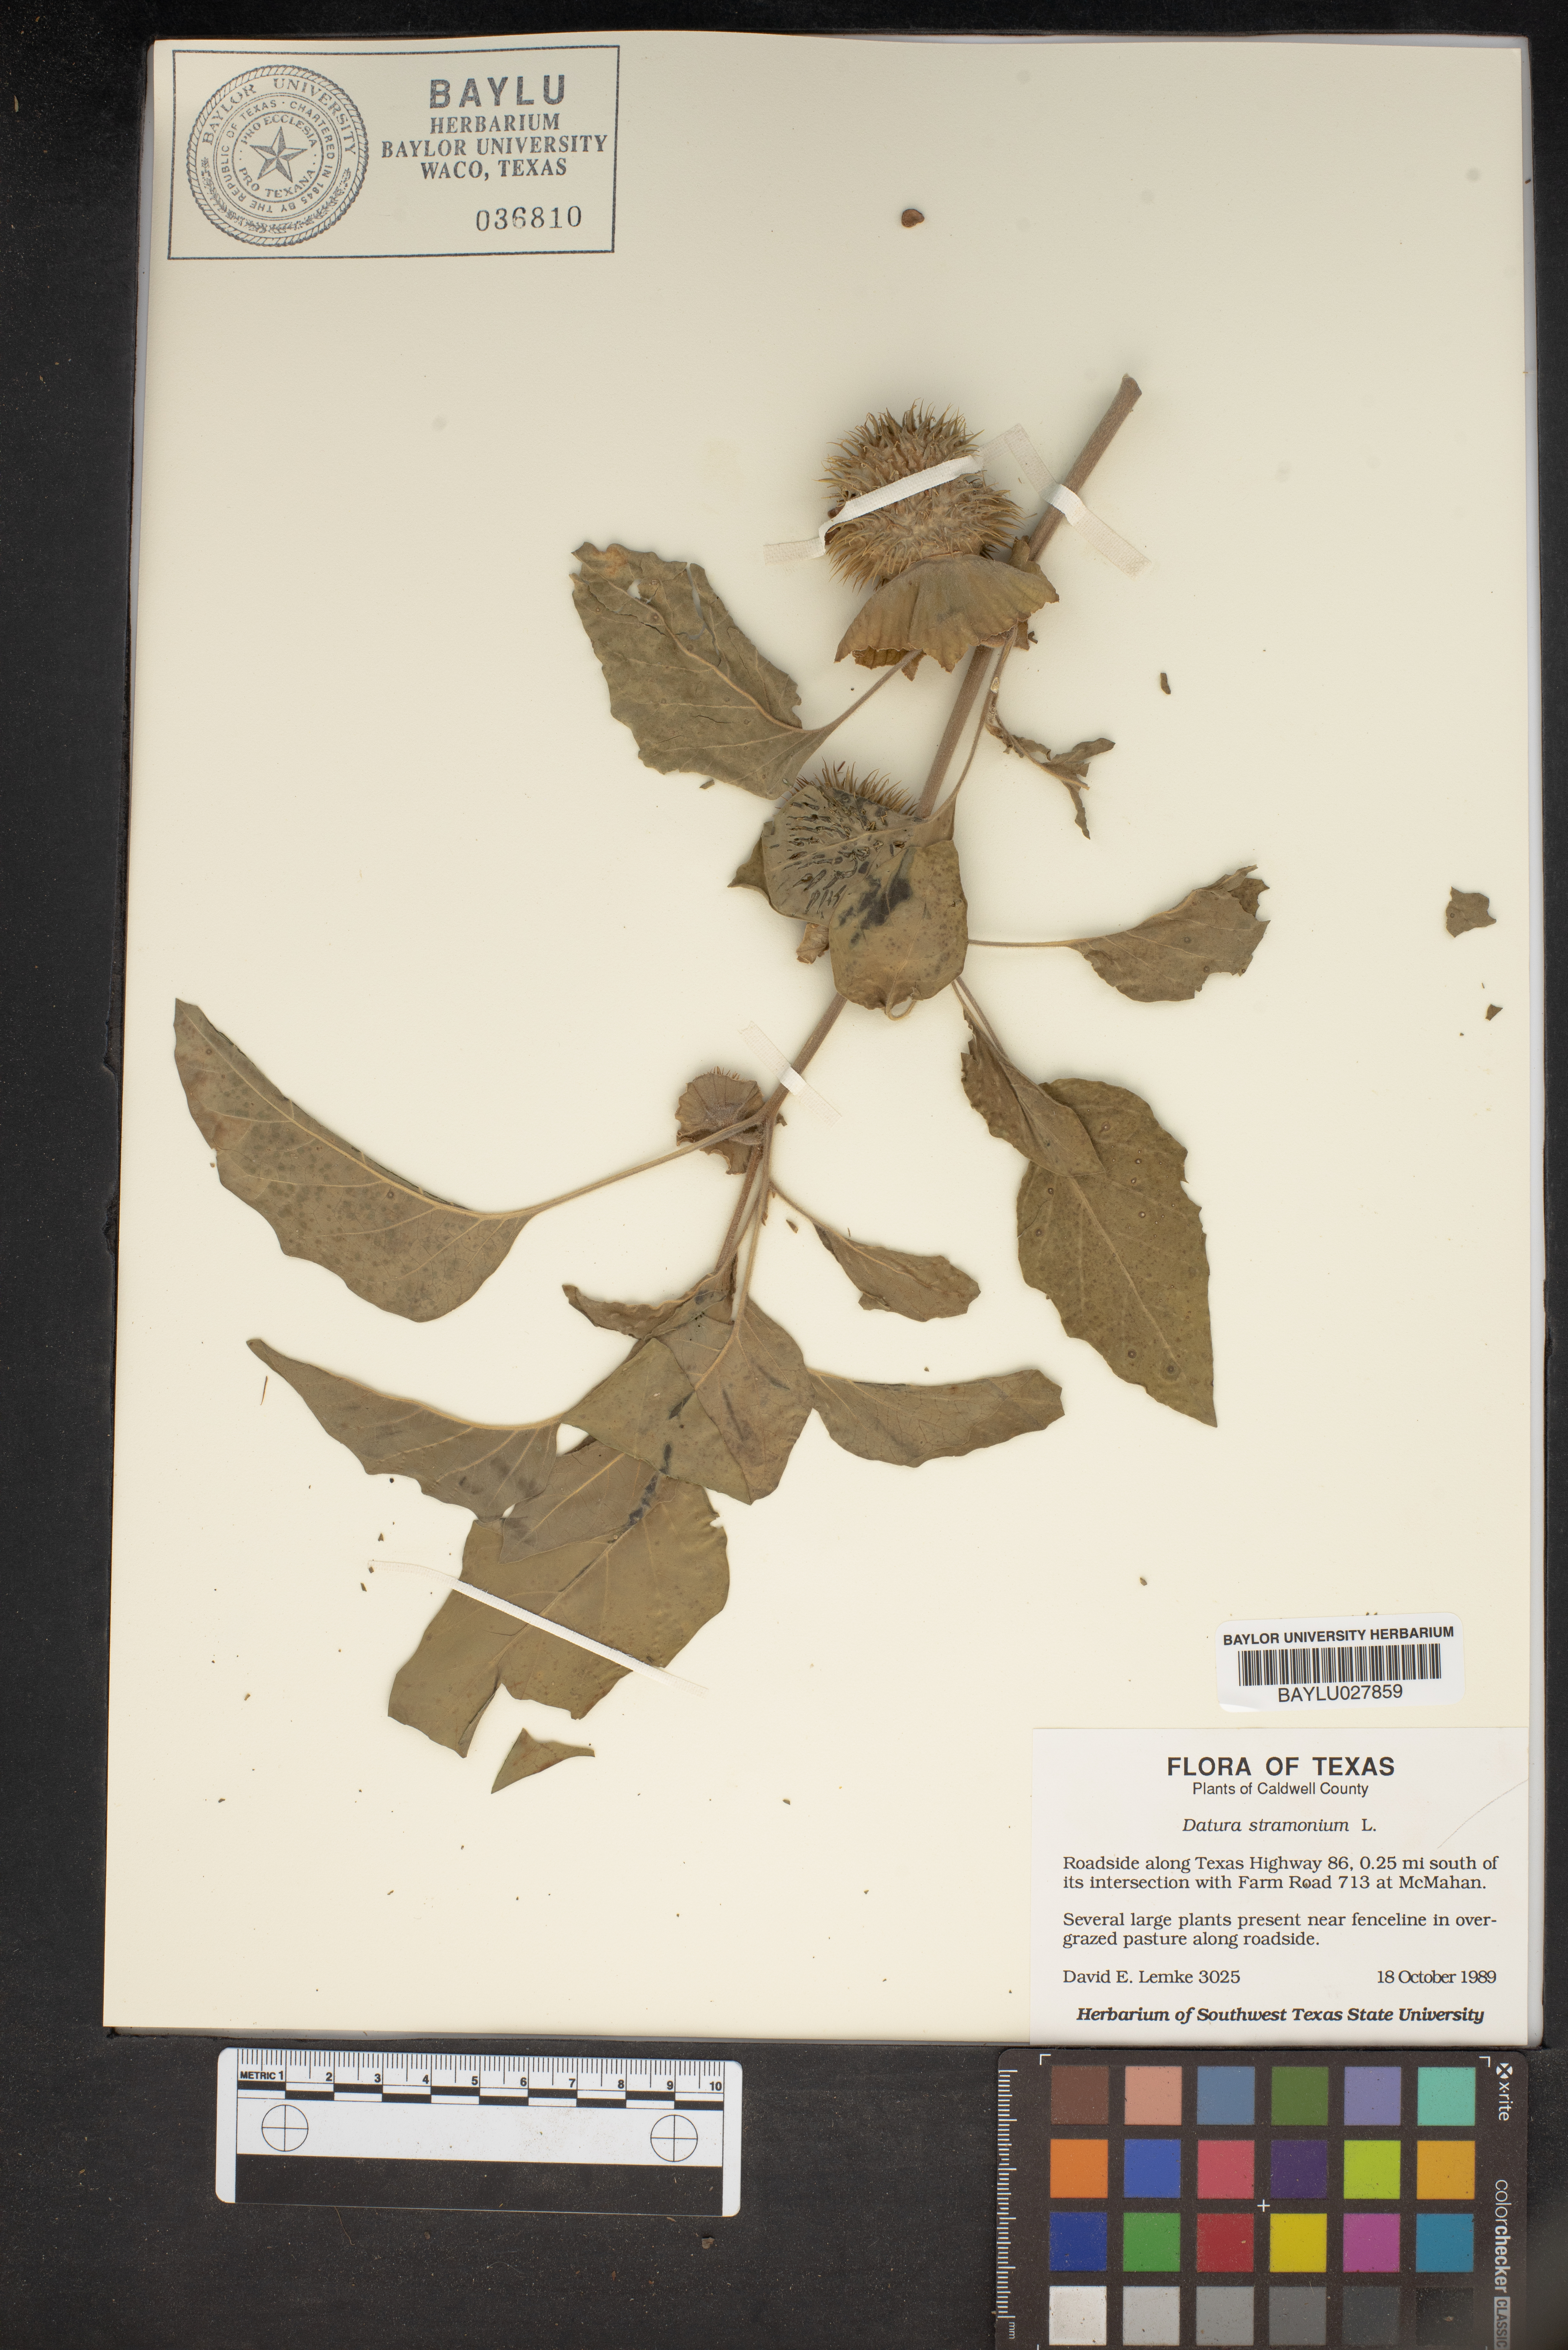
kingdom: Plantae
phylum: Tracheophyta
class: Magnoliopsida
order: Solanales
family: Solanaceae
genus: Datura
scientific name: Datura stramonium
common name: Thorn-apple
